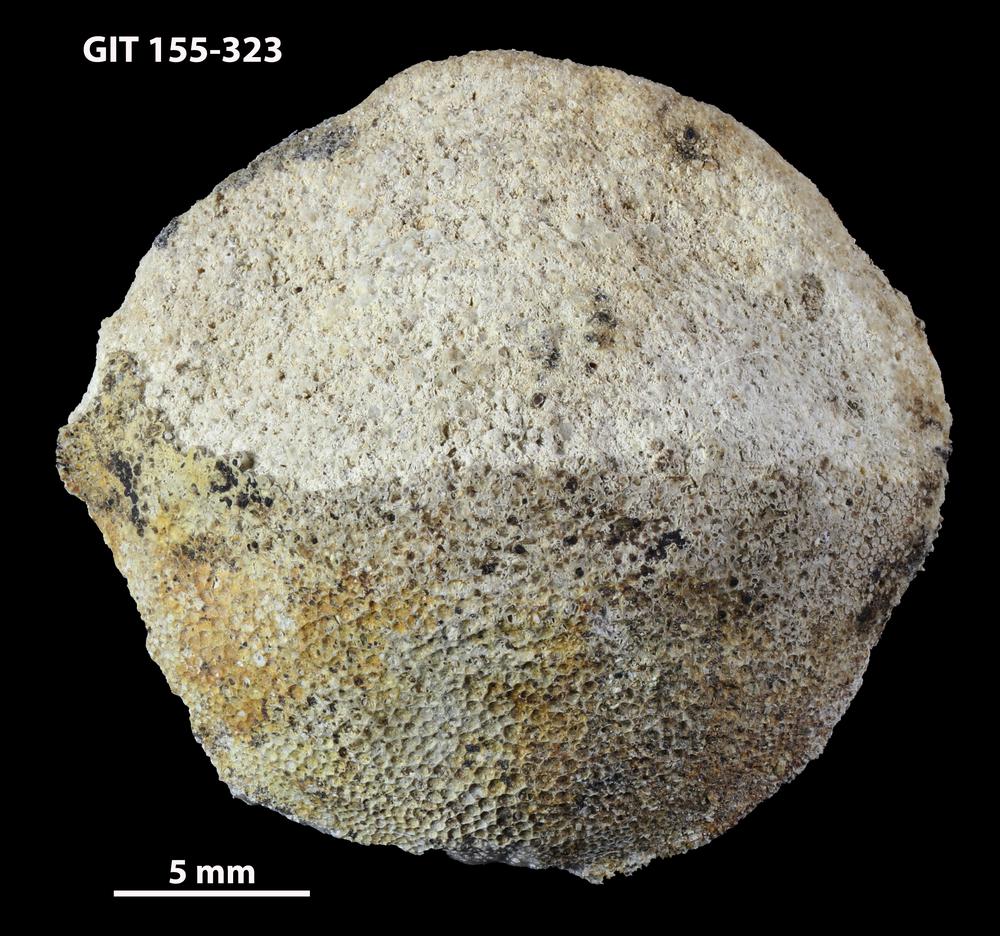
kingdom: Animalia
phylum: Bryozoa
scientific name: Bryozoa
